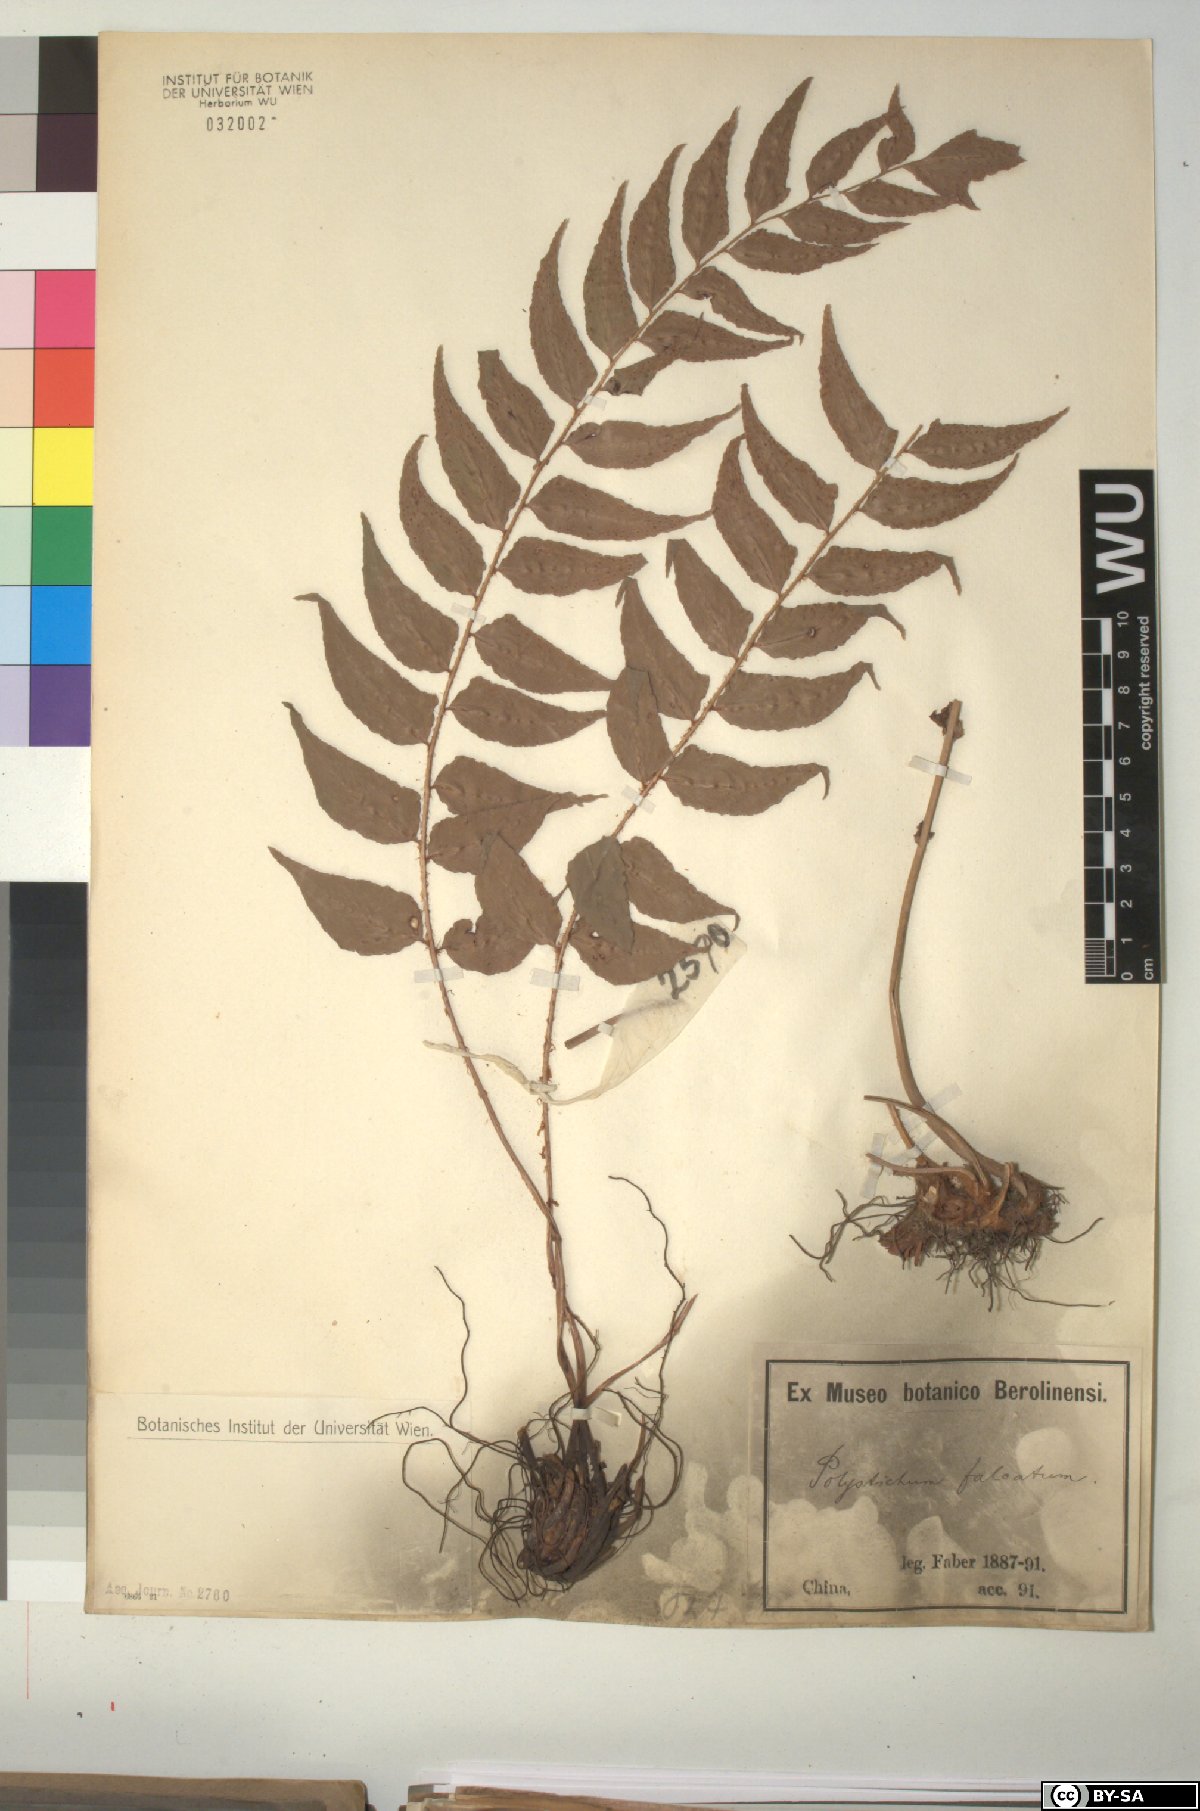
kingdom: Plantae
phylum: Tracheophyta
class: Polypodiopsida
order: Polypodiales
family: Dryopteridaceae
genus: Cyrtomium
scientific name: Cyrtomium falcatum
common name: House holly-fern
